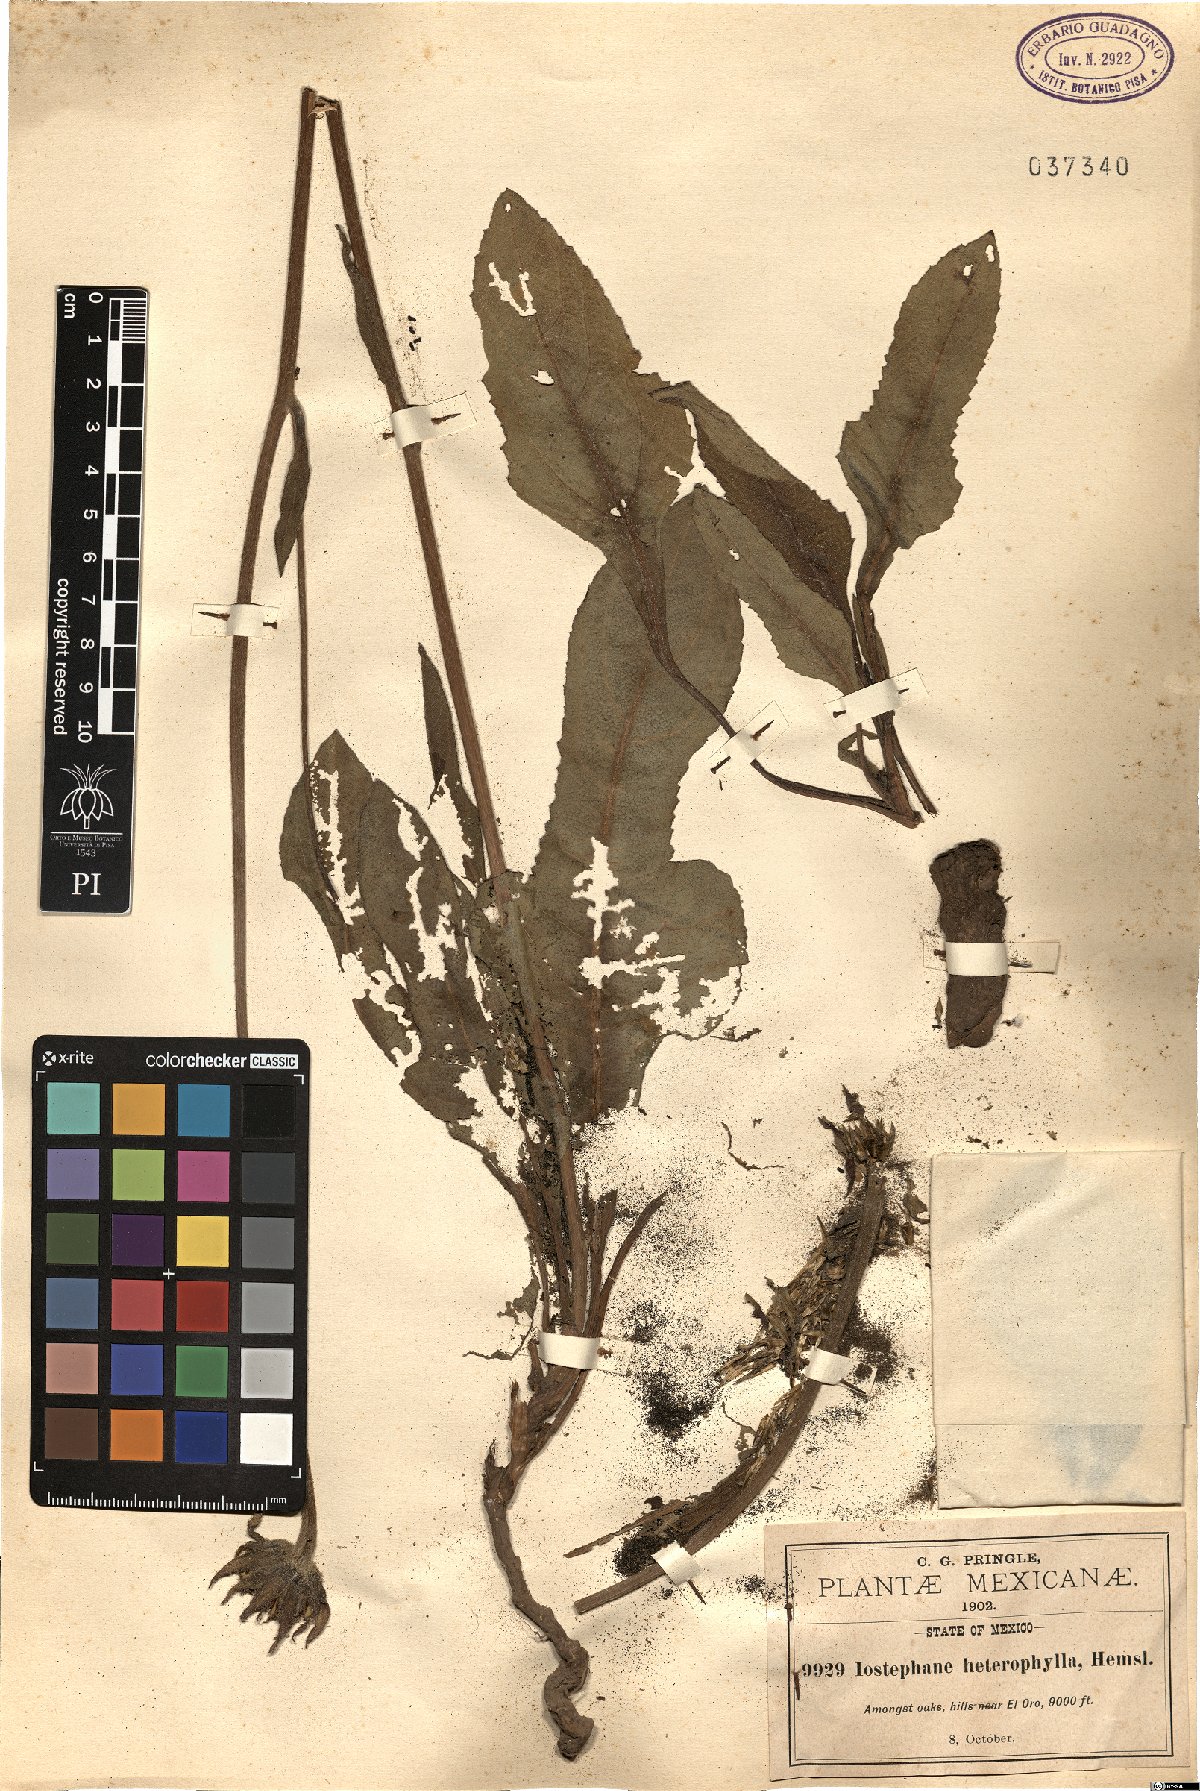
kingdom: Plantae
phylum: Tracheophyta
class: Magnoliopsida
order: Asterales
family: Asteraceae
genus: Iostephane
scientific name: Iostephane heterophylla
